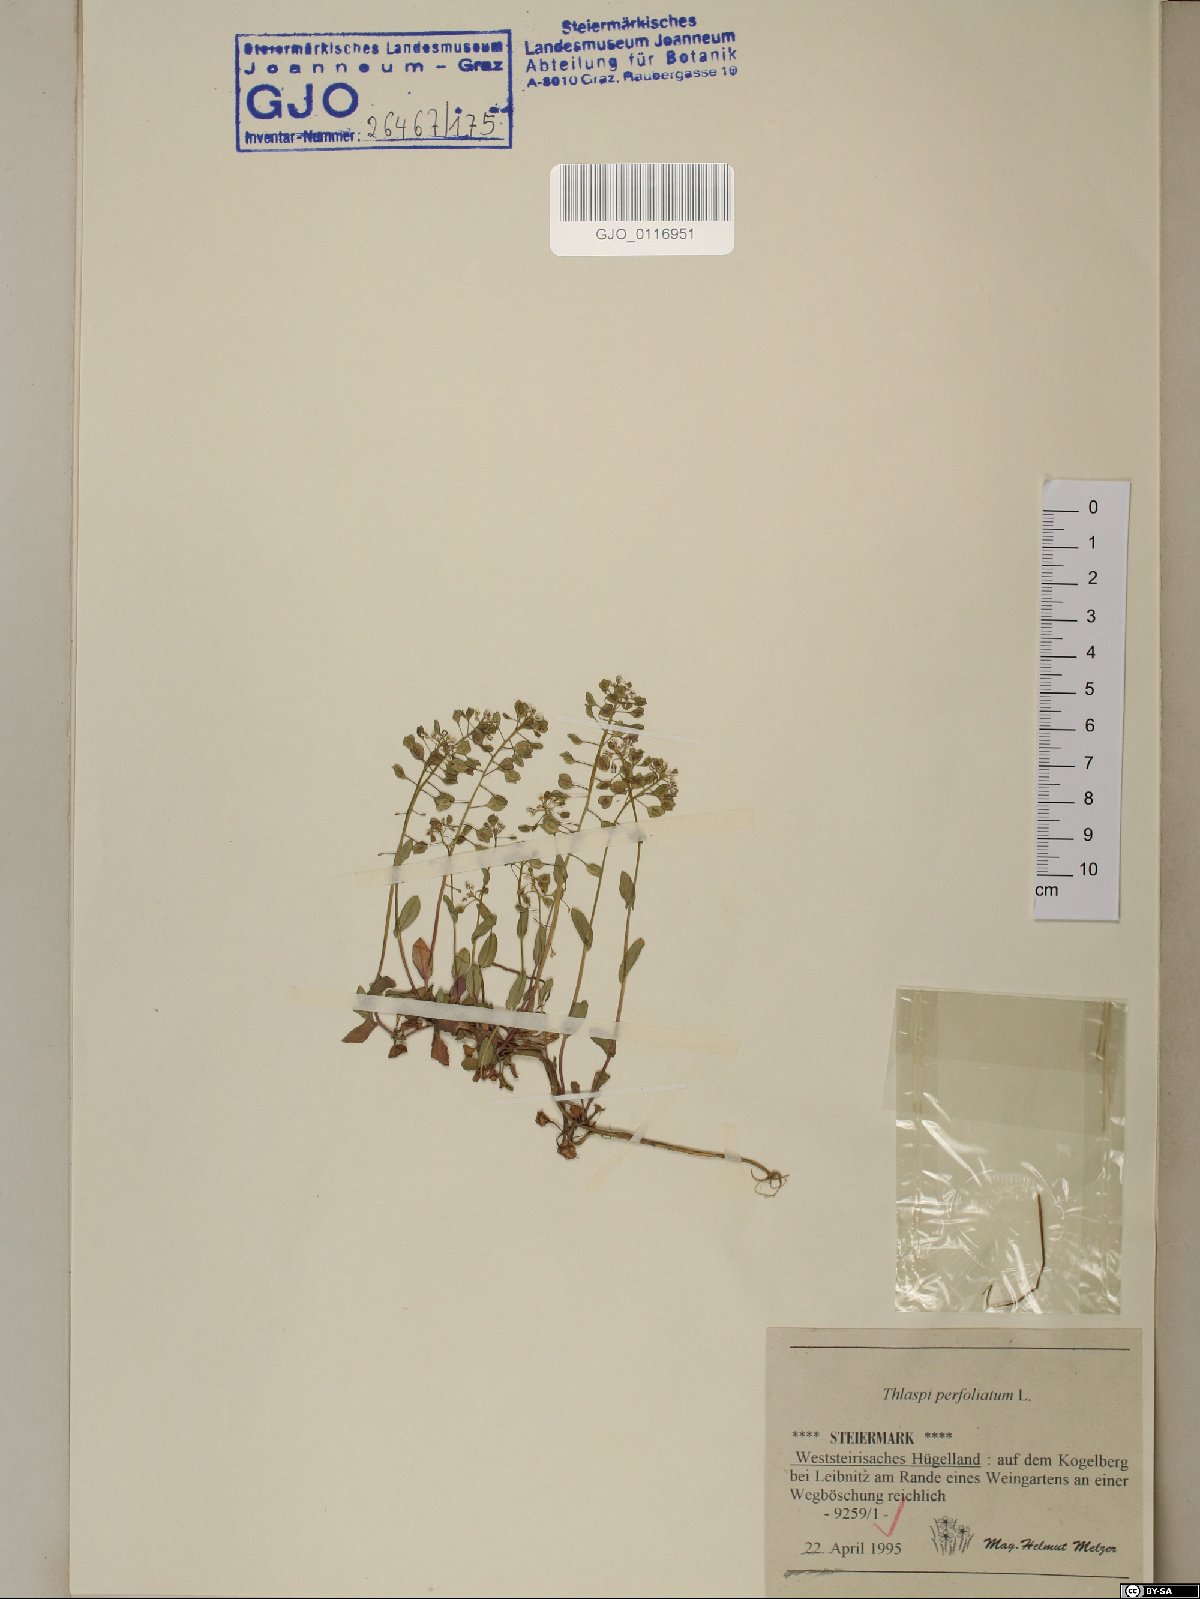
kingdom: Plantae
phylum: Tracheophyta
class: Magnoliopsida
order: Brassicales
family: Brassicaceae
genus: Noccaea
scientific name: Noccaea perfoliata
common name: Perfoliate pennycress
